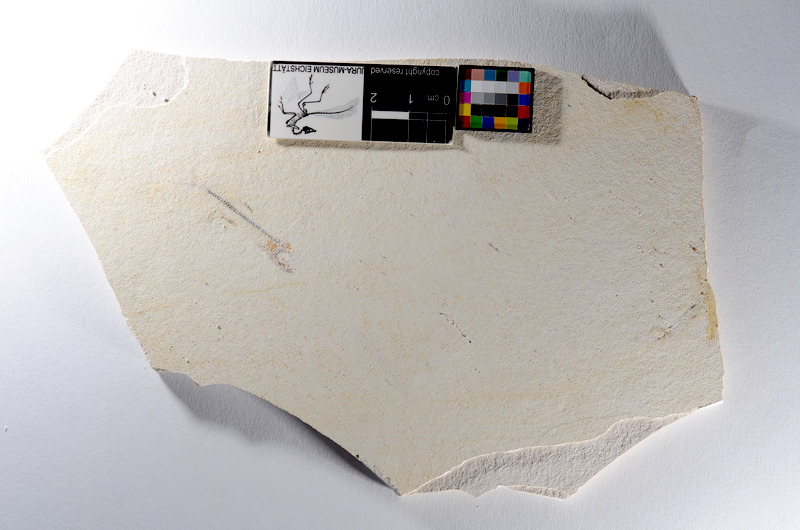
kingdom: Animalia
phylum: Chordata
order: Salmoniformes
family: Orthogonikleithridae
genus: Orthogonikleithrus
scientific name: Orthogonikleithrus hoelli
